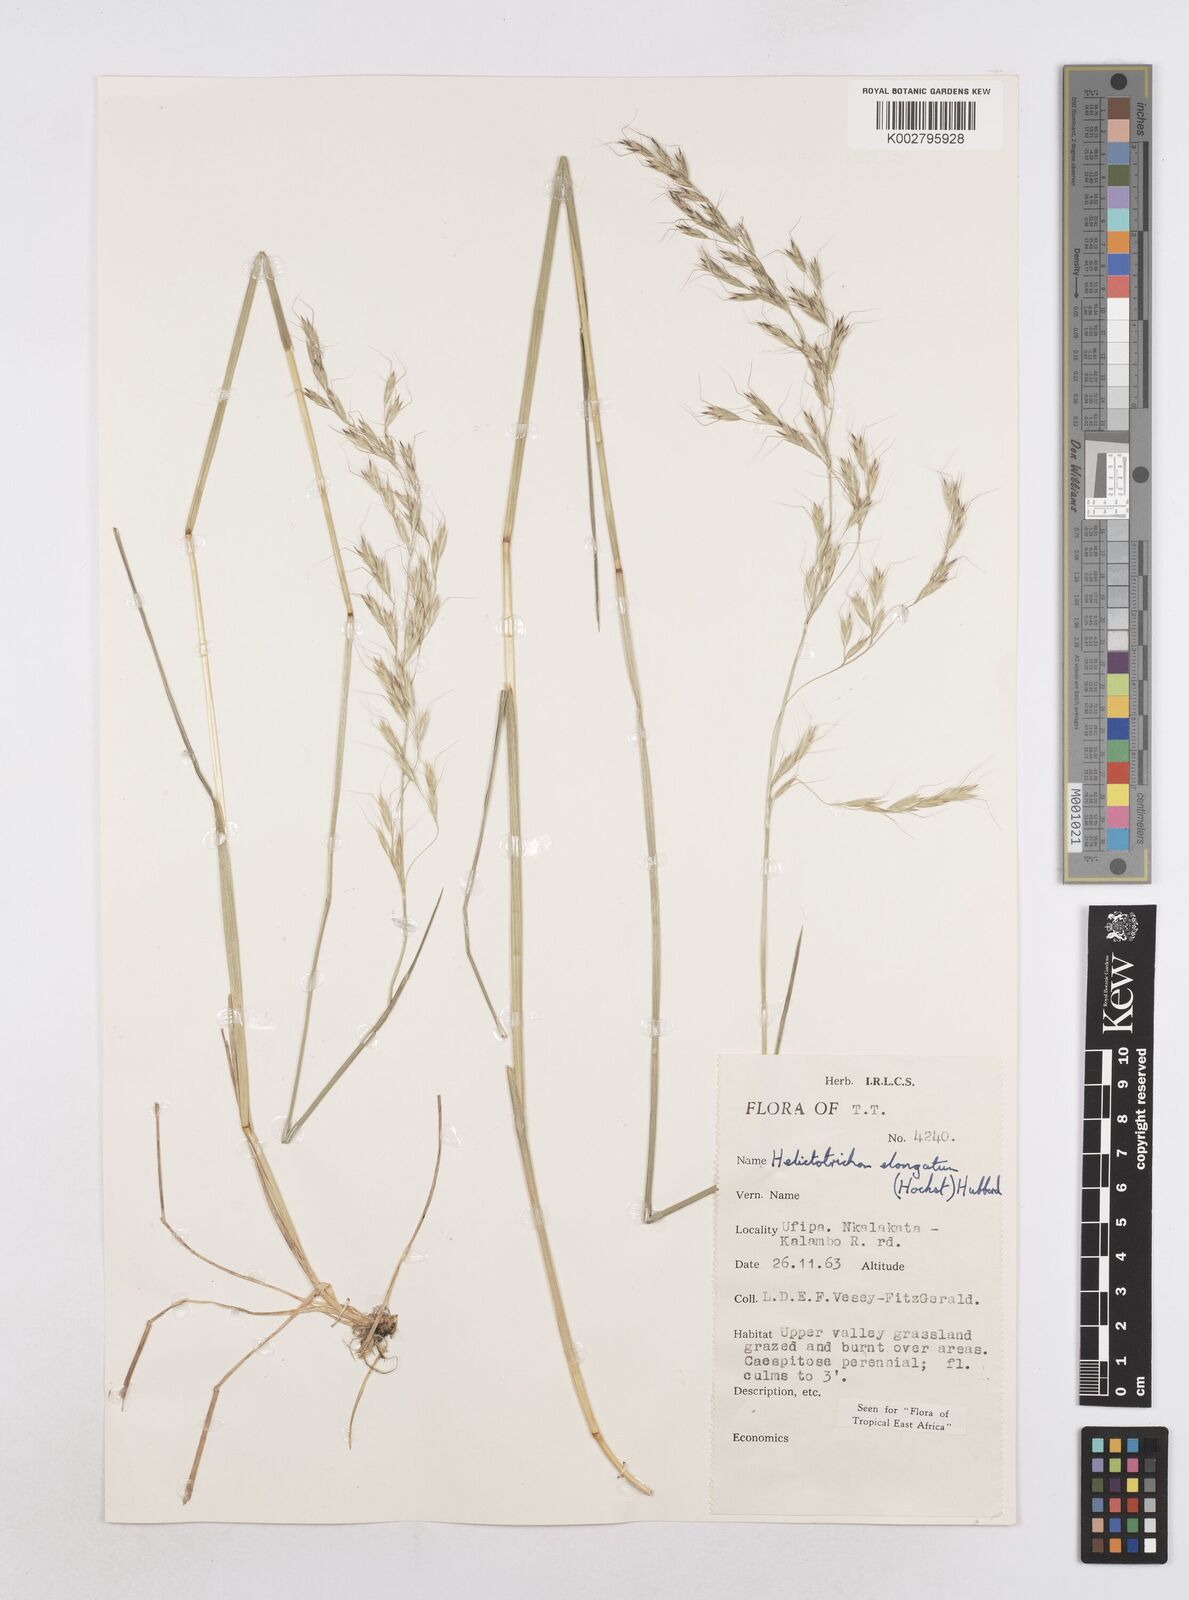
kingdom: Plantae
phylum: Tracheophyta
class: Liliopsida
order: Poales
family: Poaceae
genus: Trisetopsis
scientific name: Trisetopsis elongata
